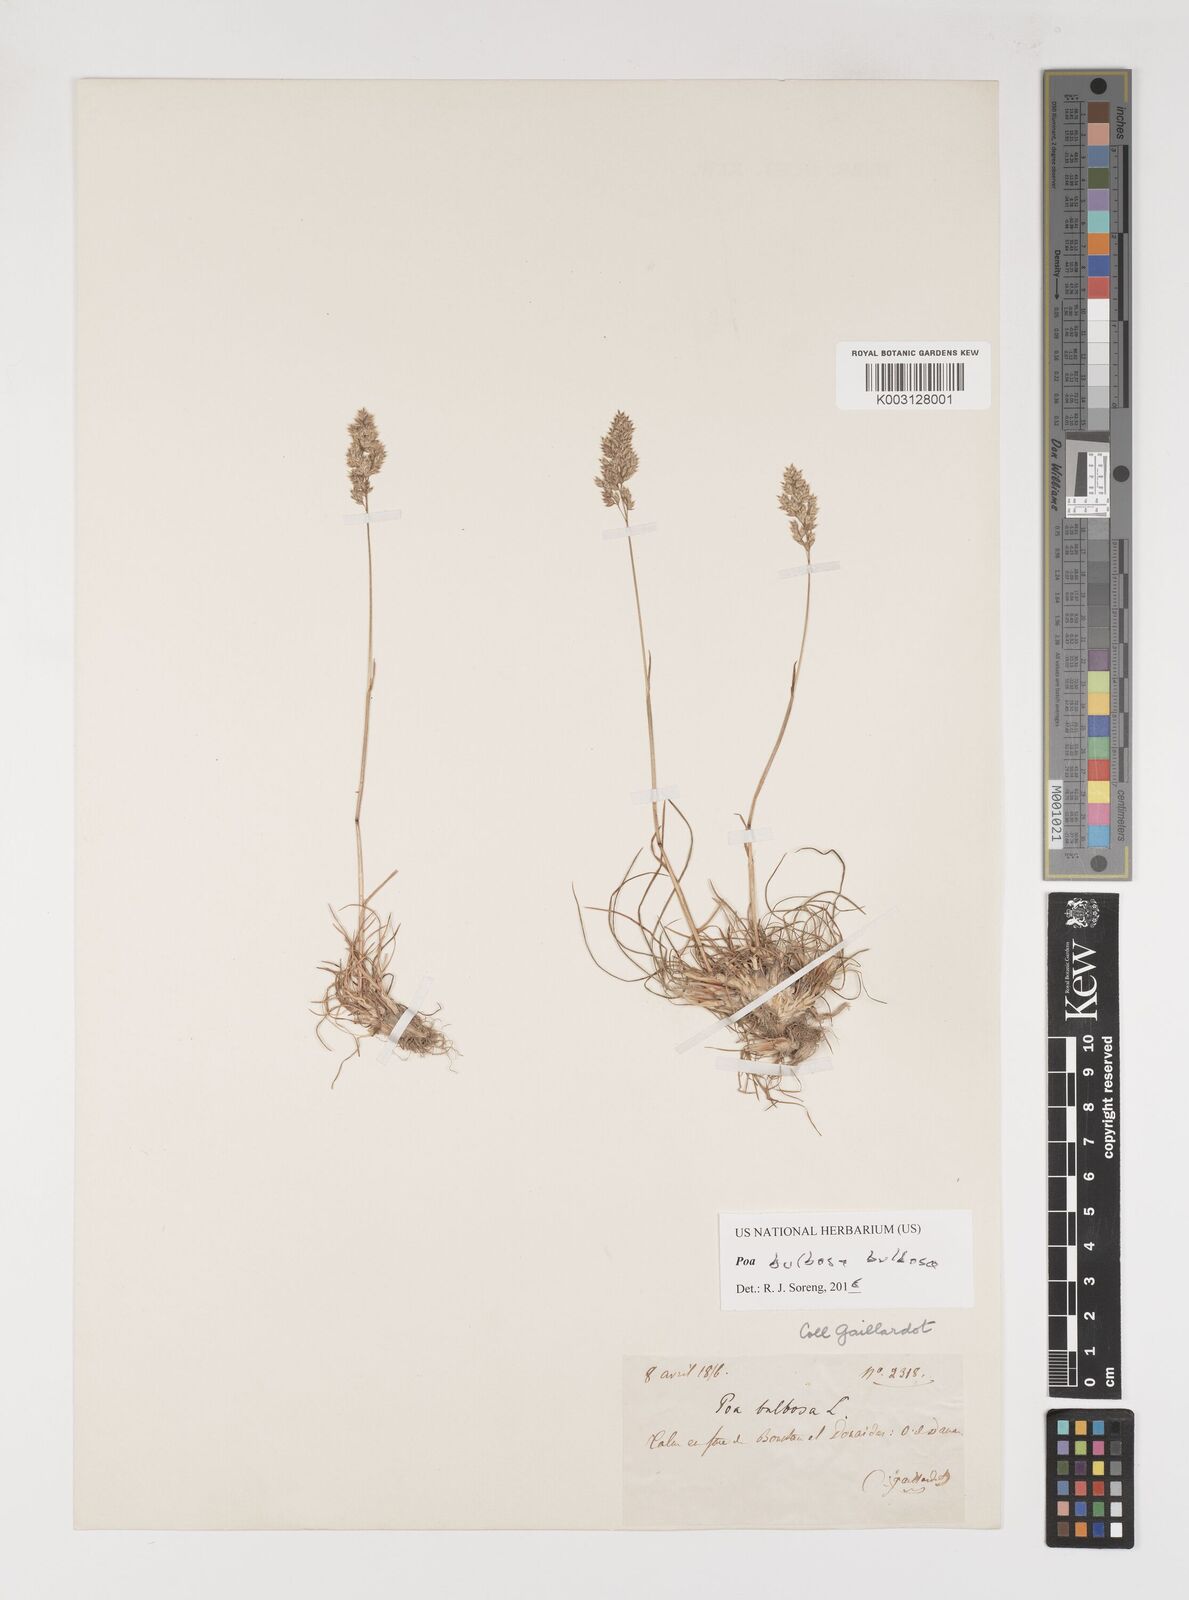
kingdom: Plantae
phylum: Tracheophyta
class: Liliopsida
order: Poales
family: Poaceae
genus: Poa
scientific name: Poa bulbosa
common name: Bulbous bluegrass
